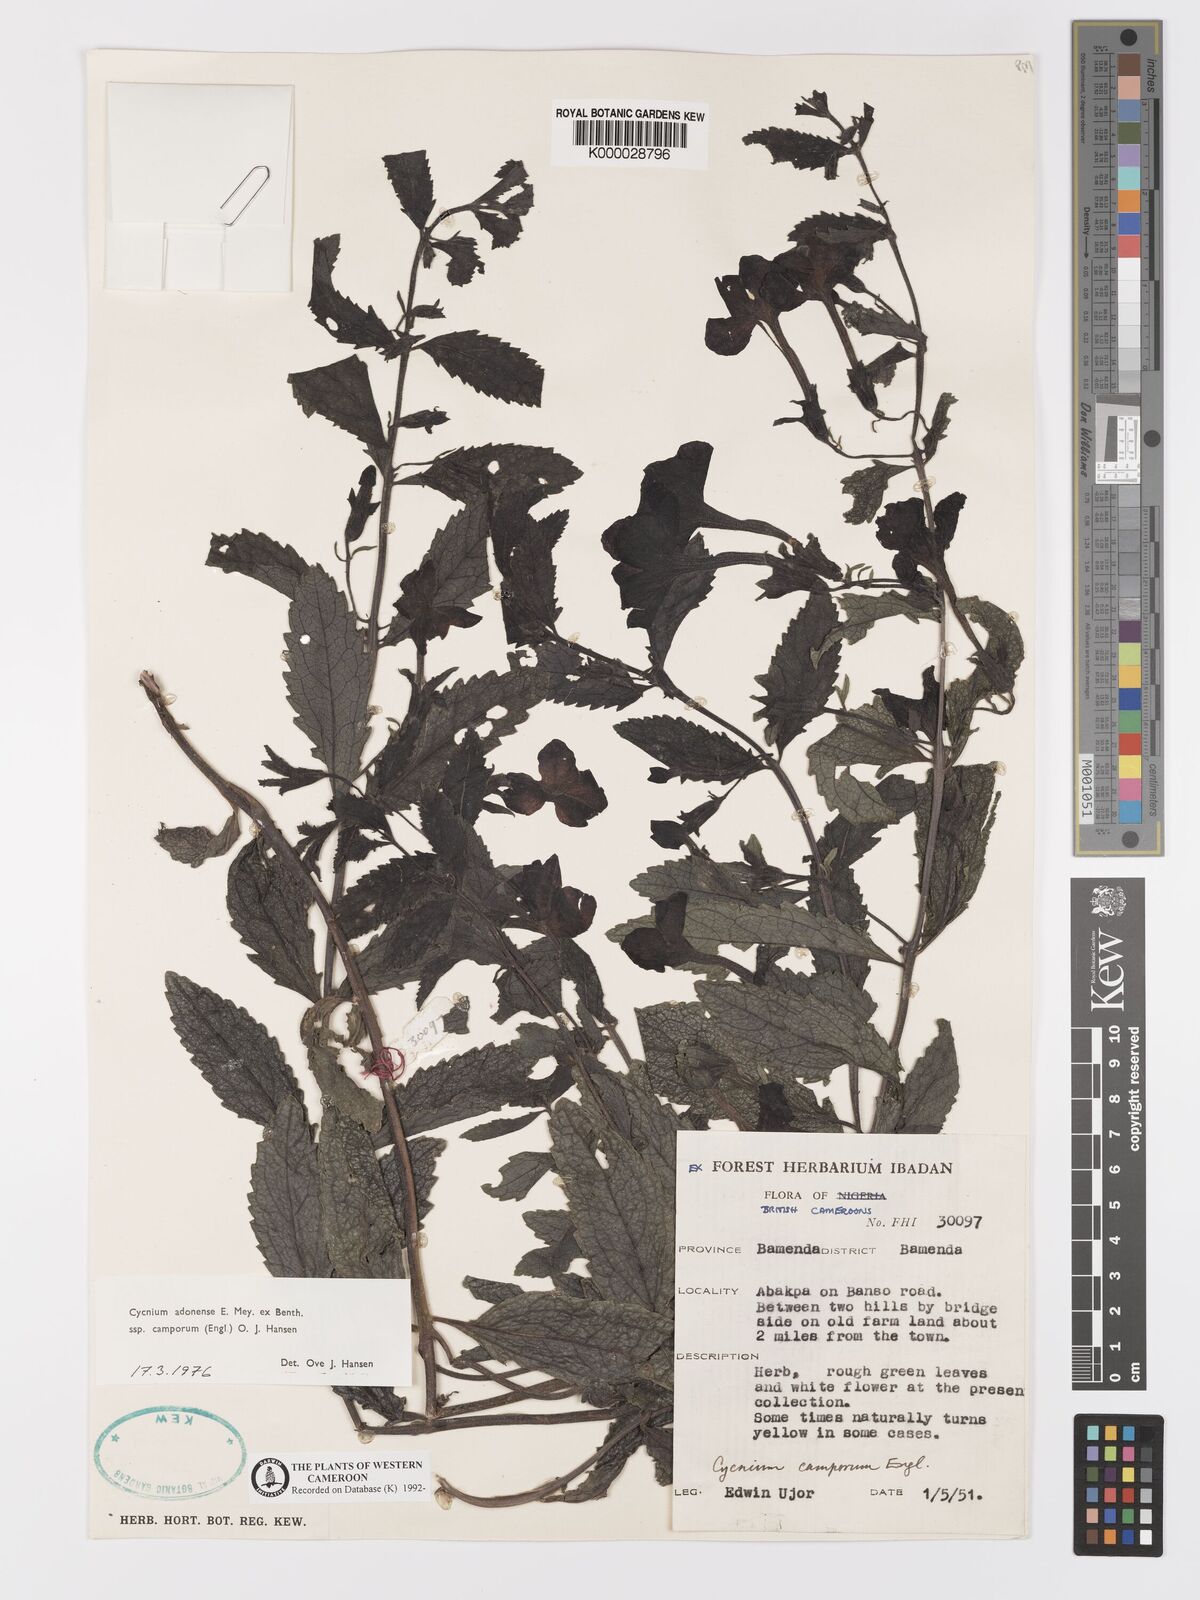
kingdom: Plantae
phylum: Tracheophyta
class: Magnoliopsida
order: Lamiales
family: Orobanchaceae
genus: Cycnium
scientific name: Cycnium adoense
